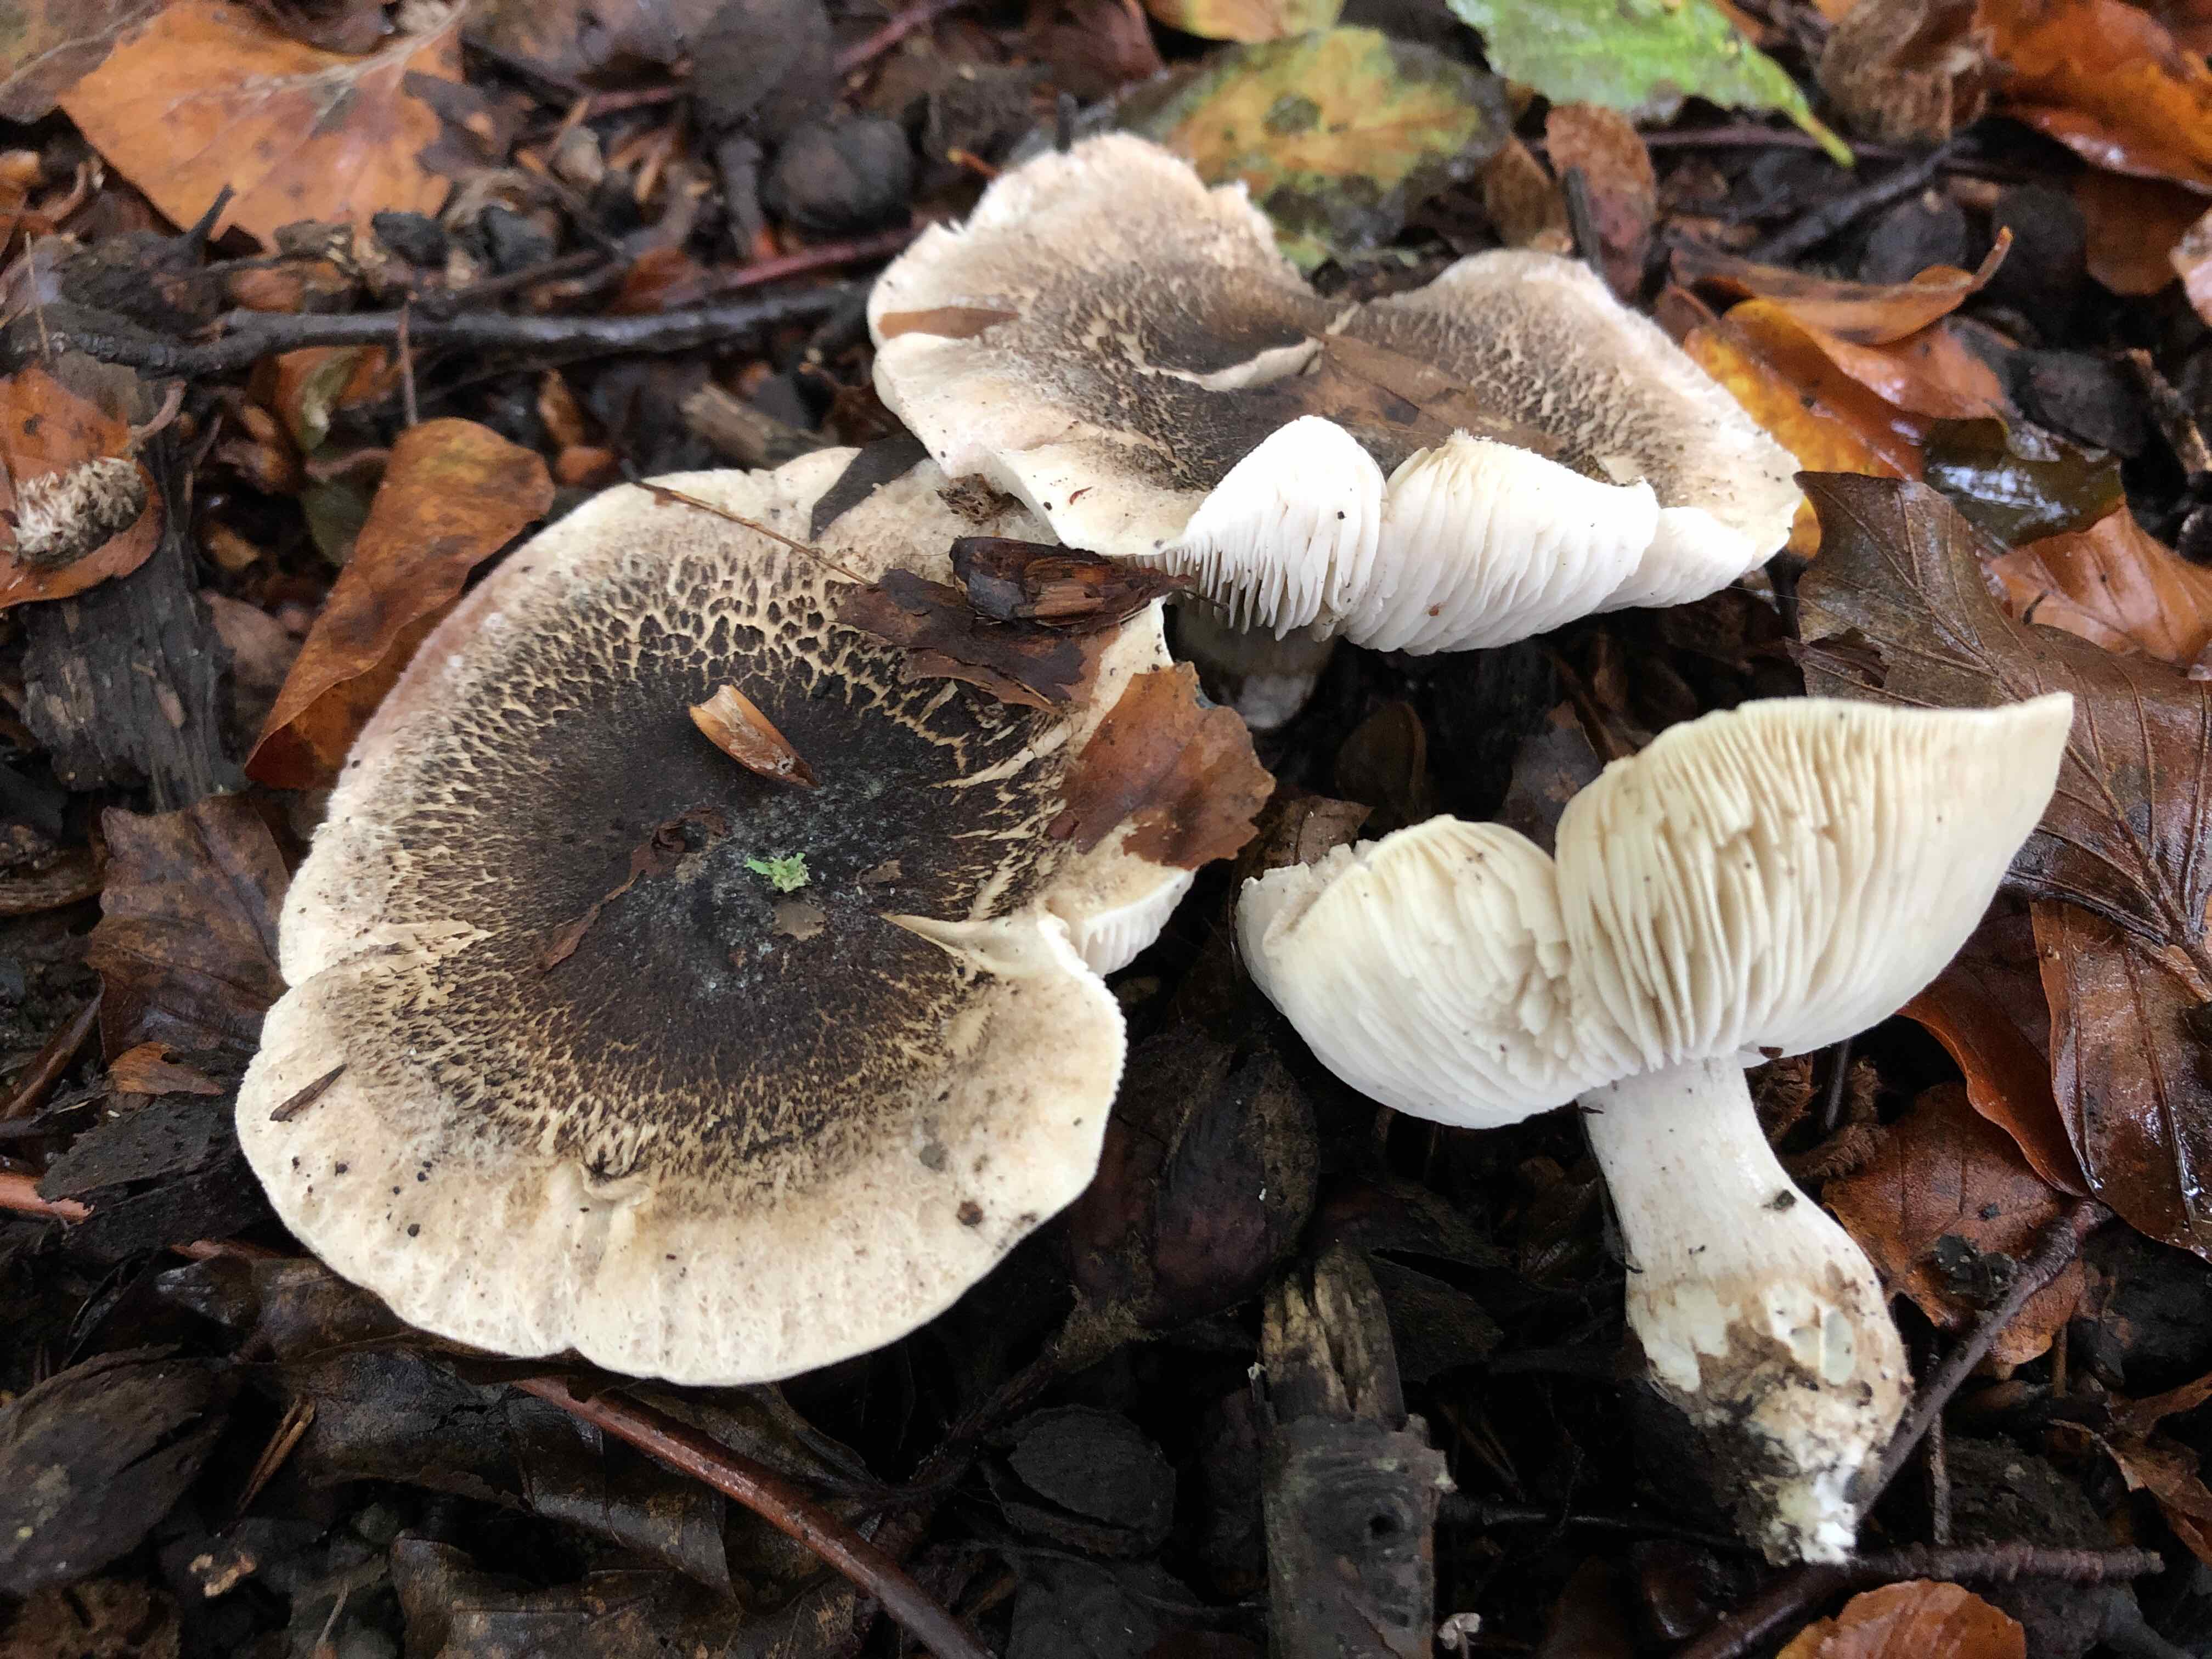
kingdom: Fungi
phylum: Basidiomycota
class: Agaricomycetes
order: Agaricales
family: Tricholomataceae
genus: Tricholoma
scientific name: Tricholoma basirubens
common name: rødfodet ridderhat
